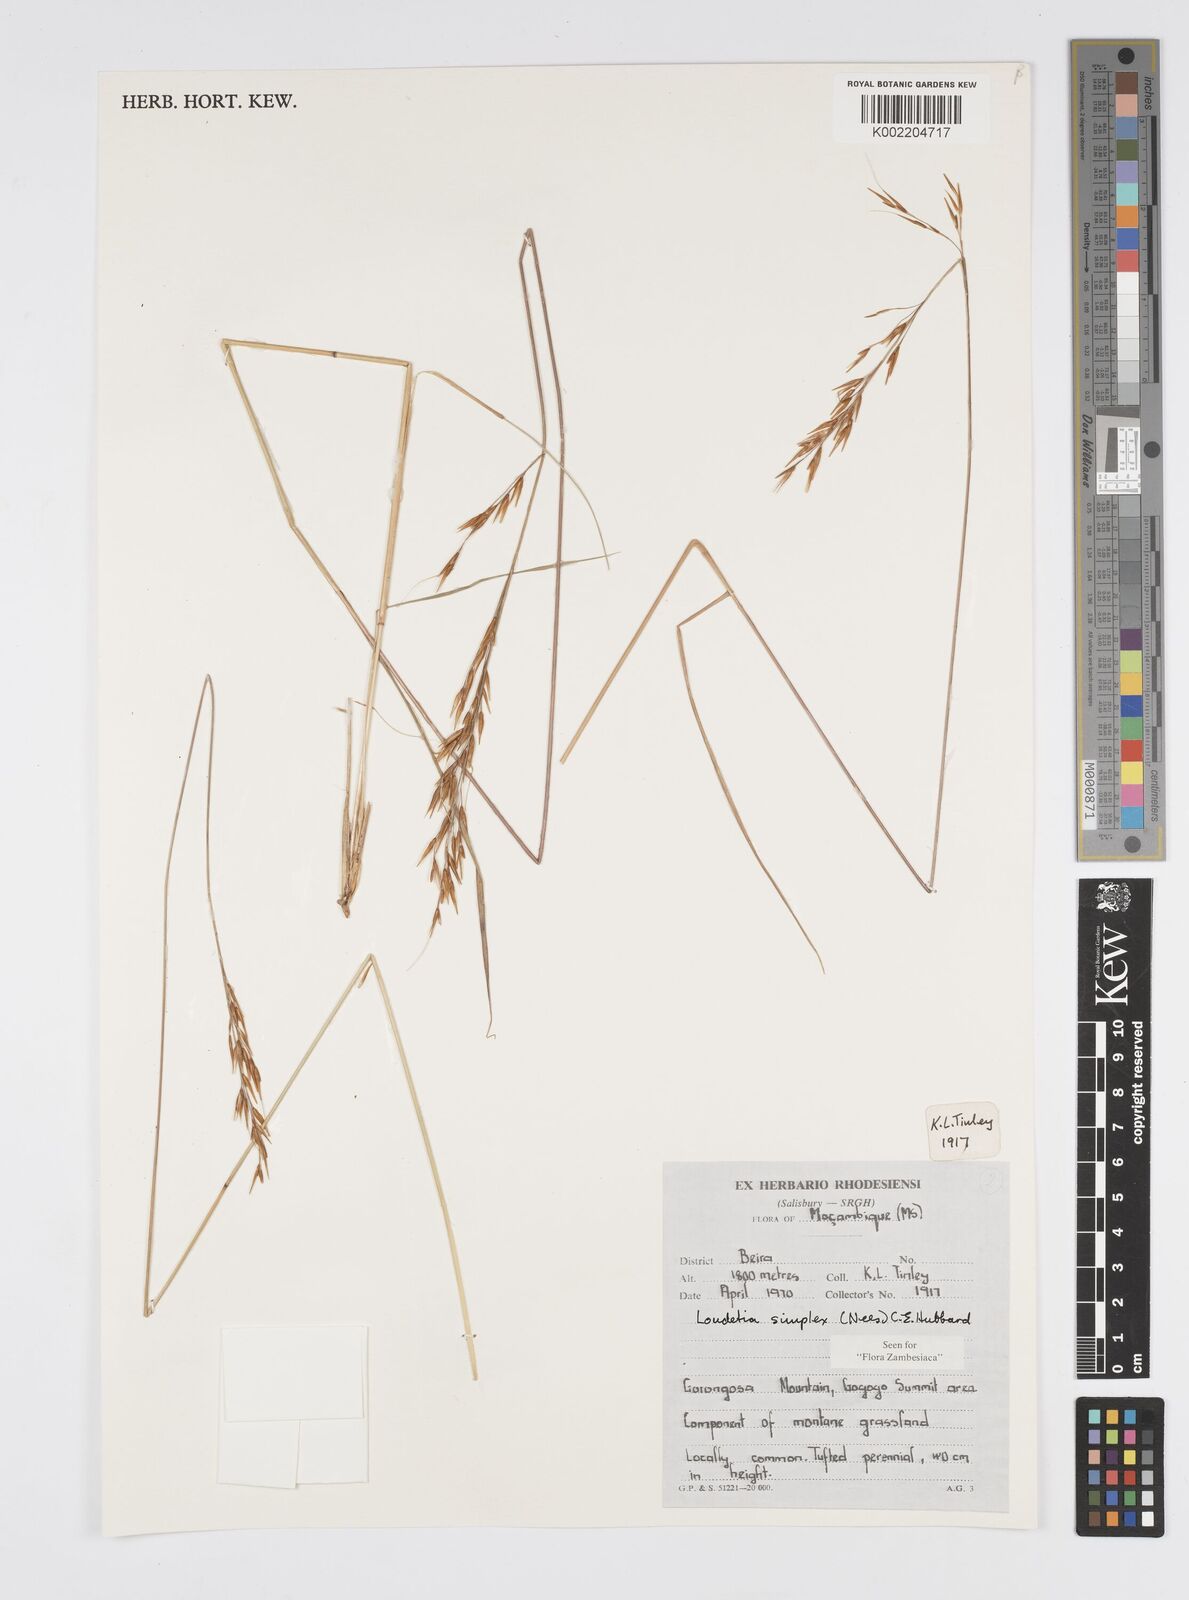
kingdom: Plantae
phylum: Tracheophyta
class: Liliopsida
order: Poales
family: Poaceae
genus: Loudetia
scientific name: Loudetia simplex
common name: Common russet grass
